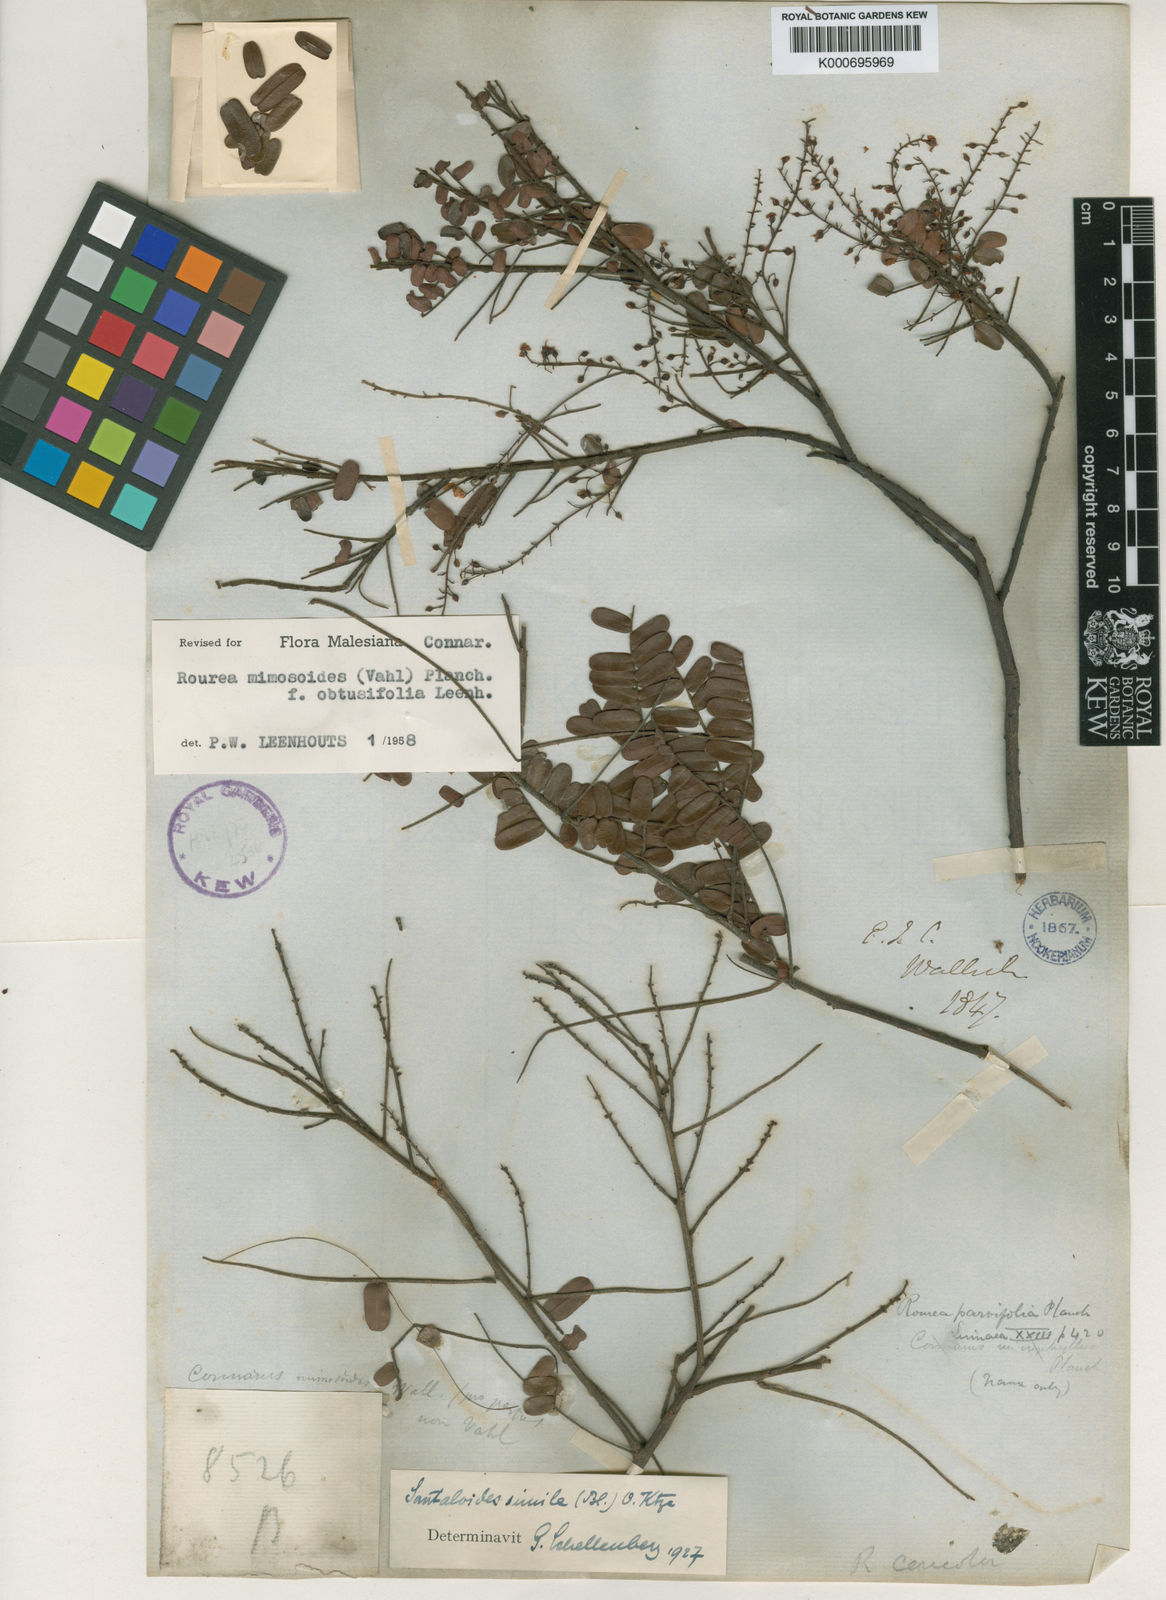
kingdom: Plantae
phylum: Tracheophyta
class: Magnoliopsida
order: Oxalidales
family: Connaraceae
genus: Rourea
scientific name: Rourea mimosoides
